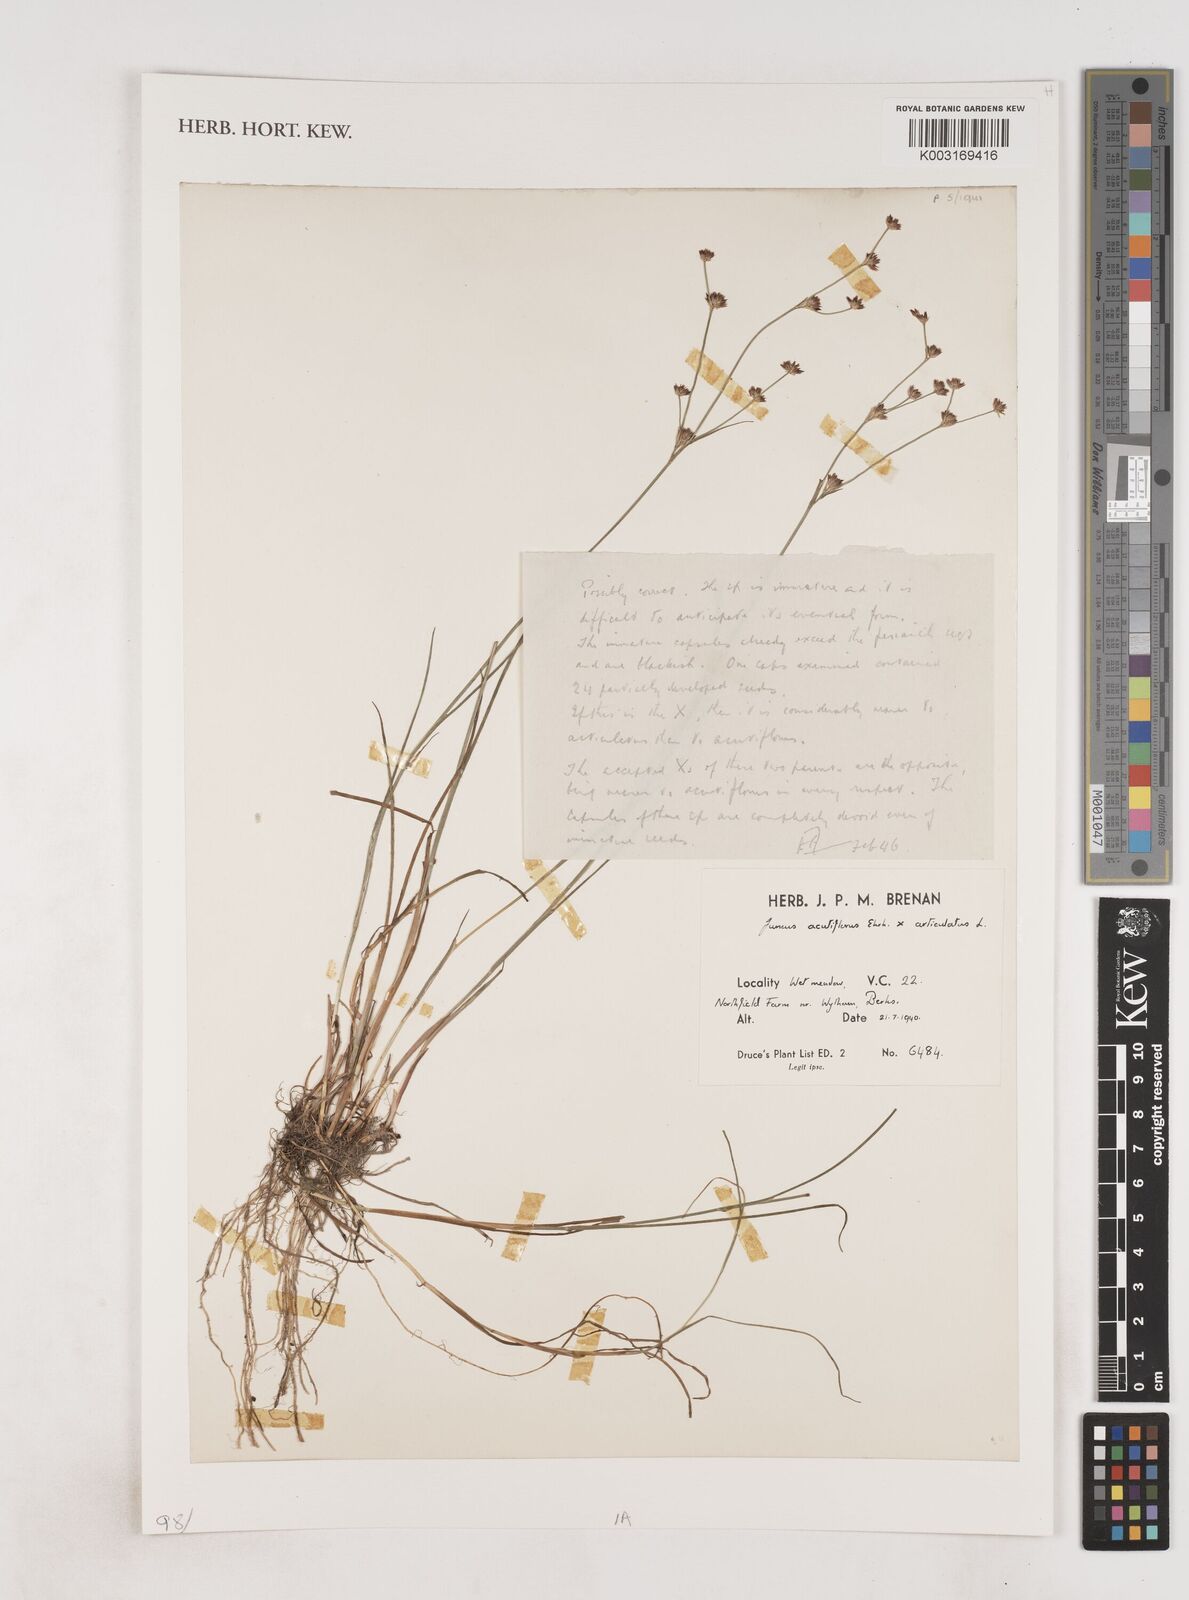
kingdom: Plantae
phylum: Tracheophyta
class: Liliopsida
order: Poales
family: Juncaceae
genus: Juncus
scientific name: Juncus acutiflorus
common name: Sharp-flowered rush
